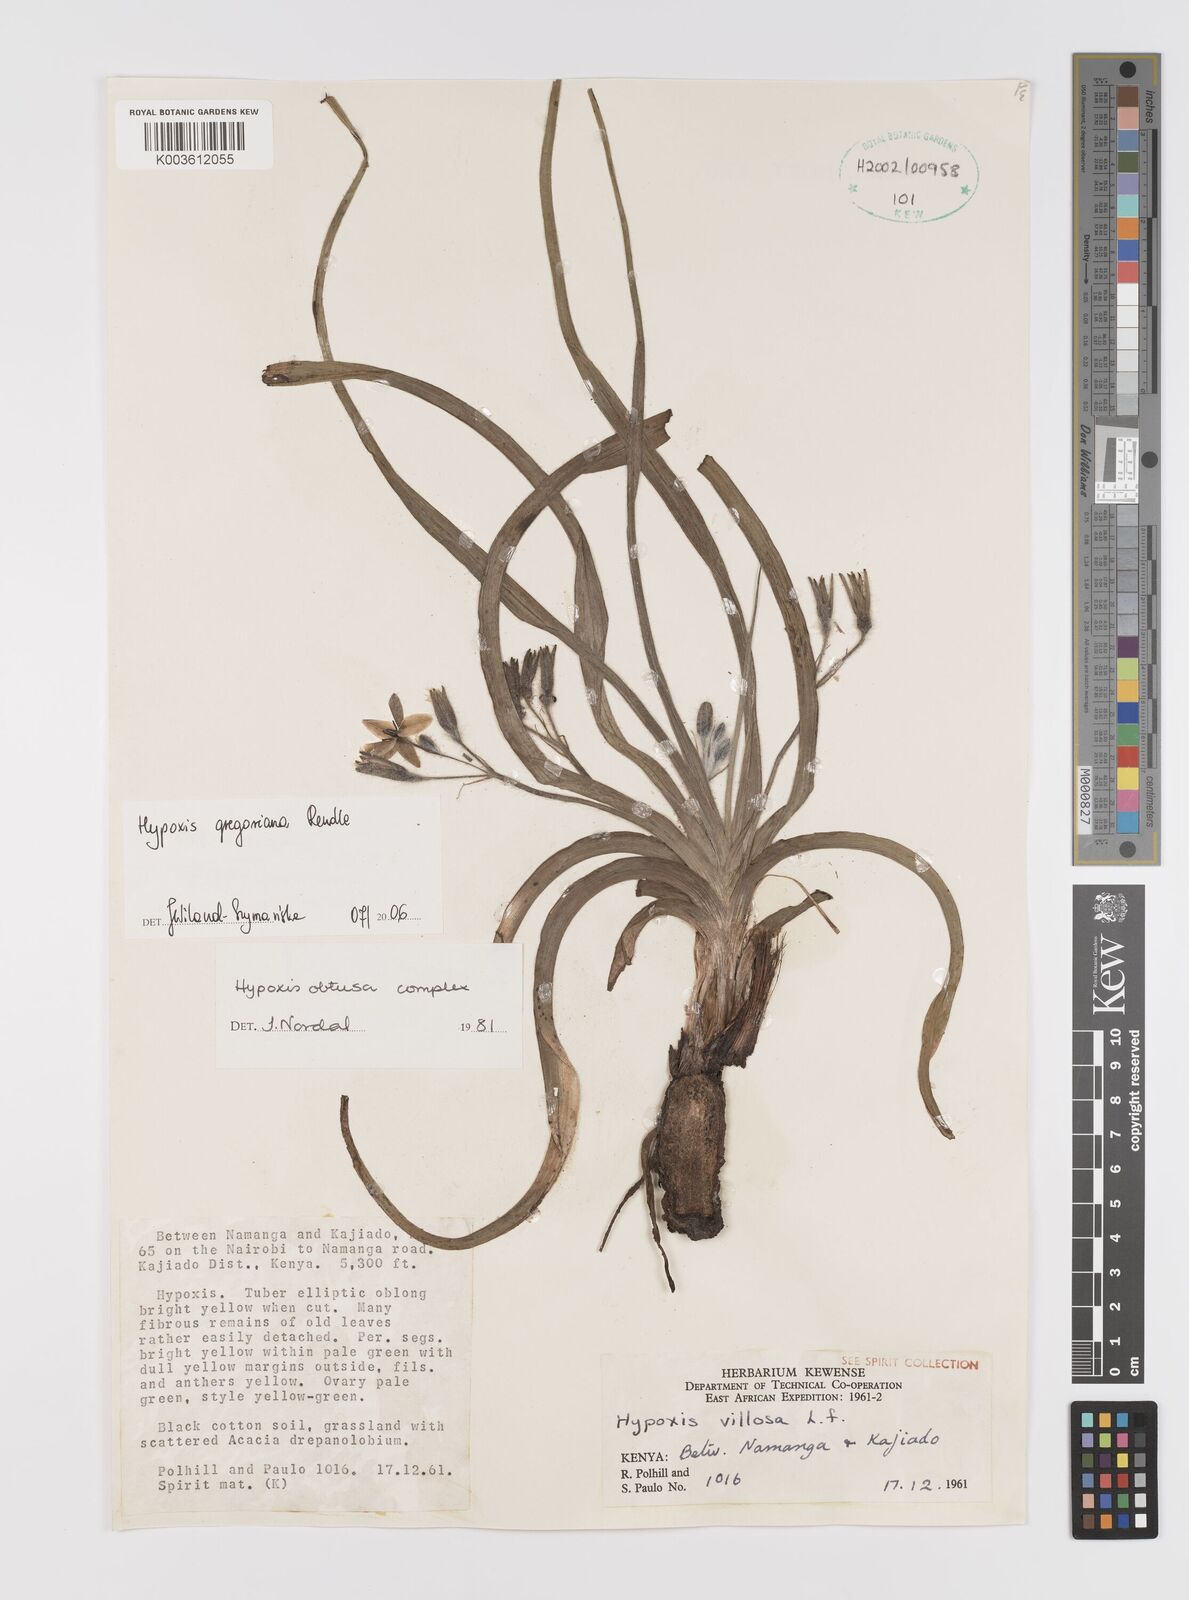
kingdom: Plantae
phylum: Tracheophyta
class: Liliopsida
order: Asparagales
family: Hypoxidaceae
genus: Hypoxis
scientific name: Hypoxis gregoriana
